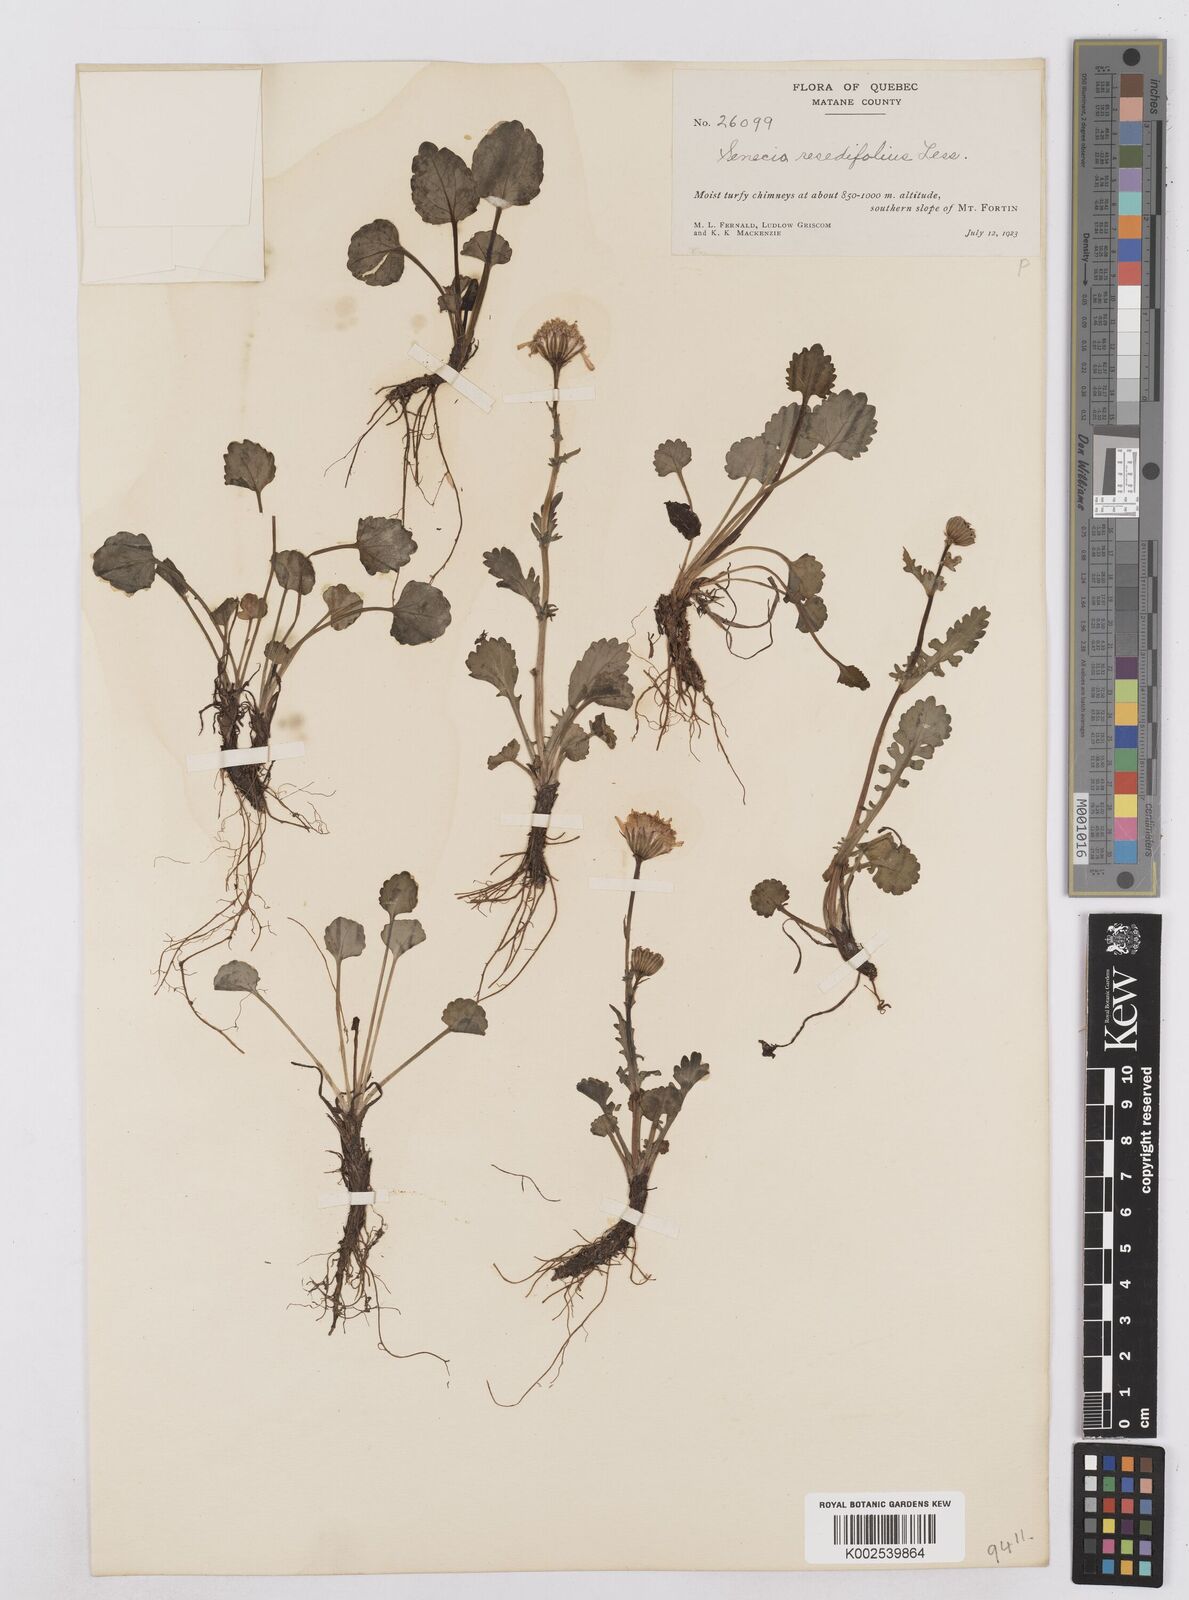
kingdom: Plantae
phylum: Tracheophyta
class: Magnoliopsida
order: Asterales
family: Asteraceae
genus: Packera
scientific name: Packera cymbalaria
